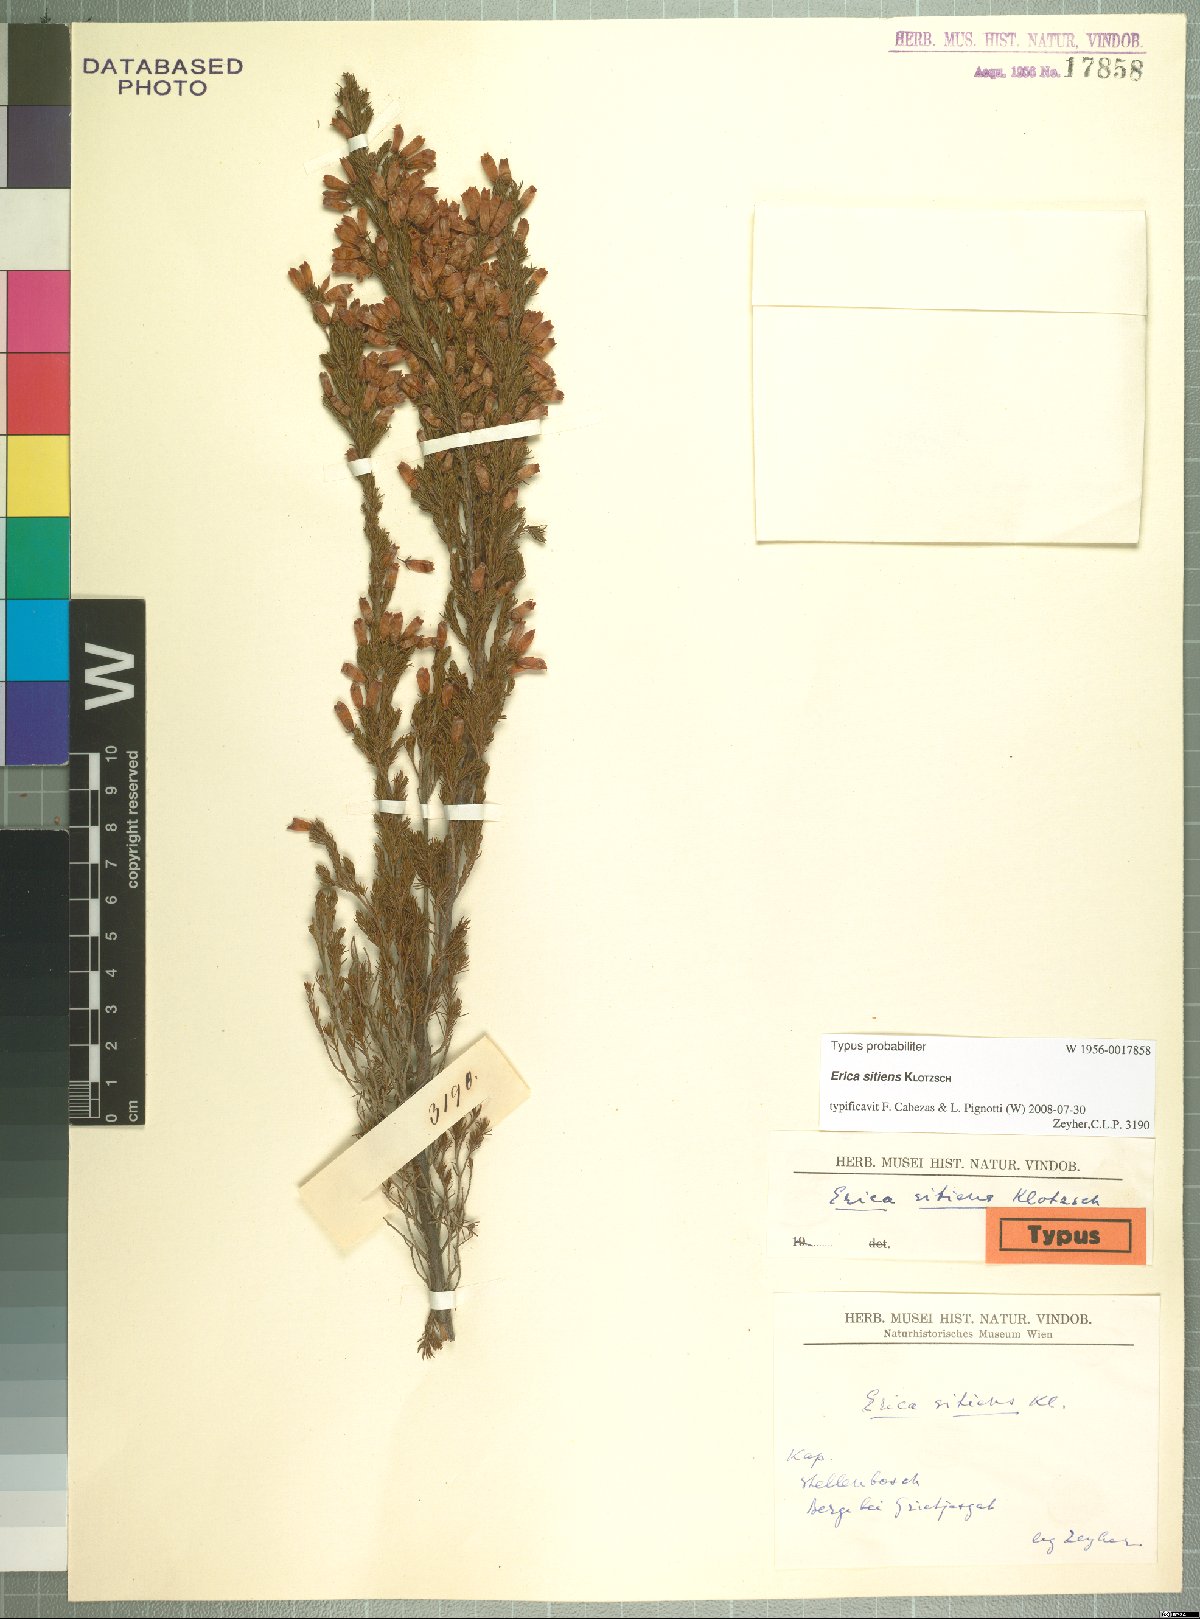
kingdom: Plantae
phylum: Tracheophyta
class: Magnoliopsida
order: Ericales
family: Ericaceae
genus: Erica
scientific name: Erica sitiens
